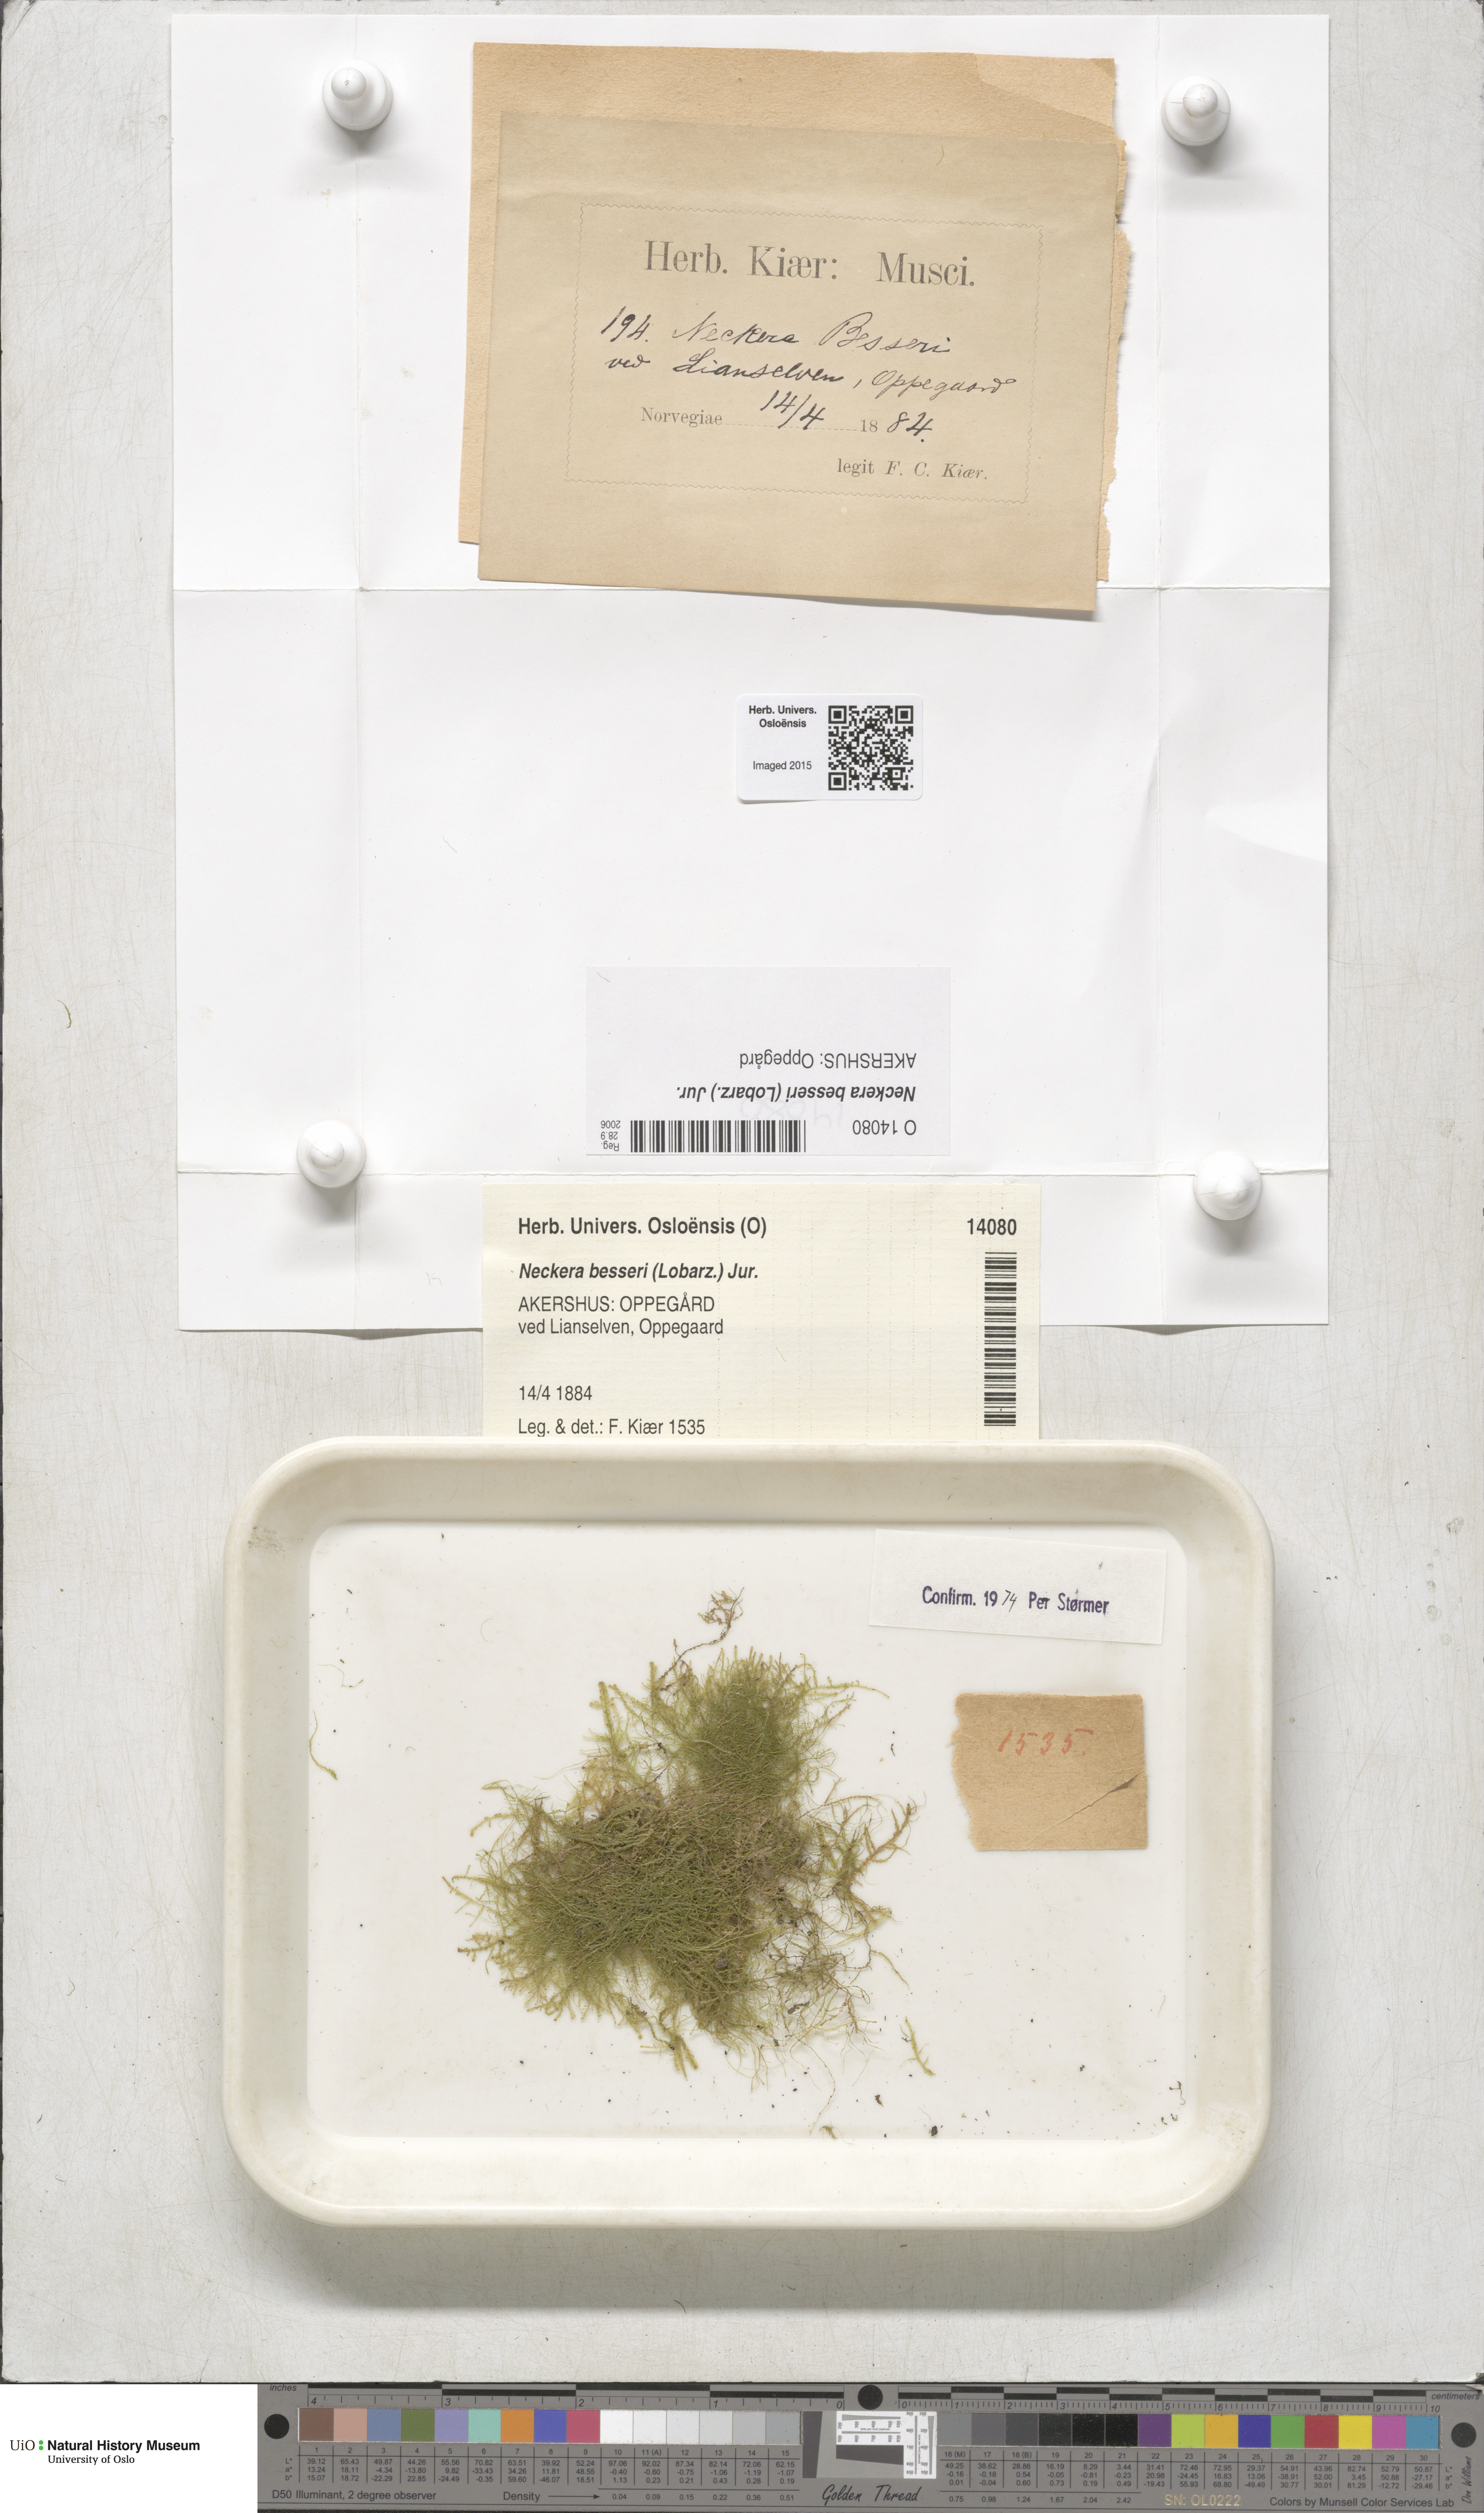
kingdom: Plantae
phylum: Bryophyta
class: Bryopsida
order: Hypnales
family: Neckeraceae
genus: Alleniella
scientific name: Alleniella besseri
